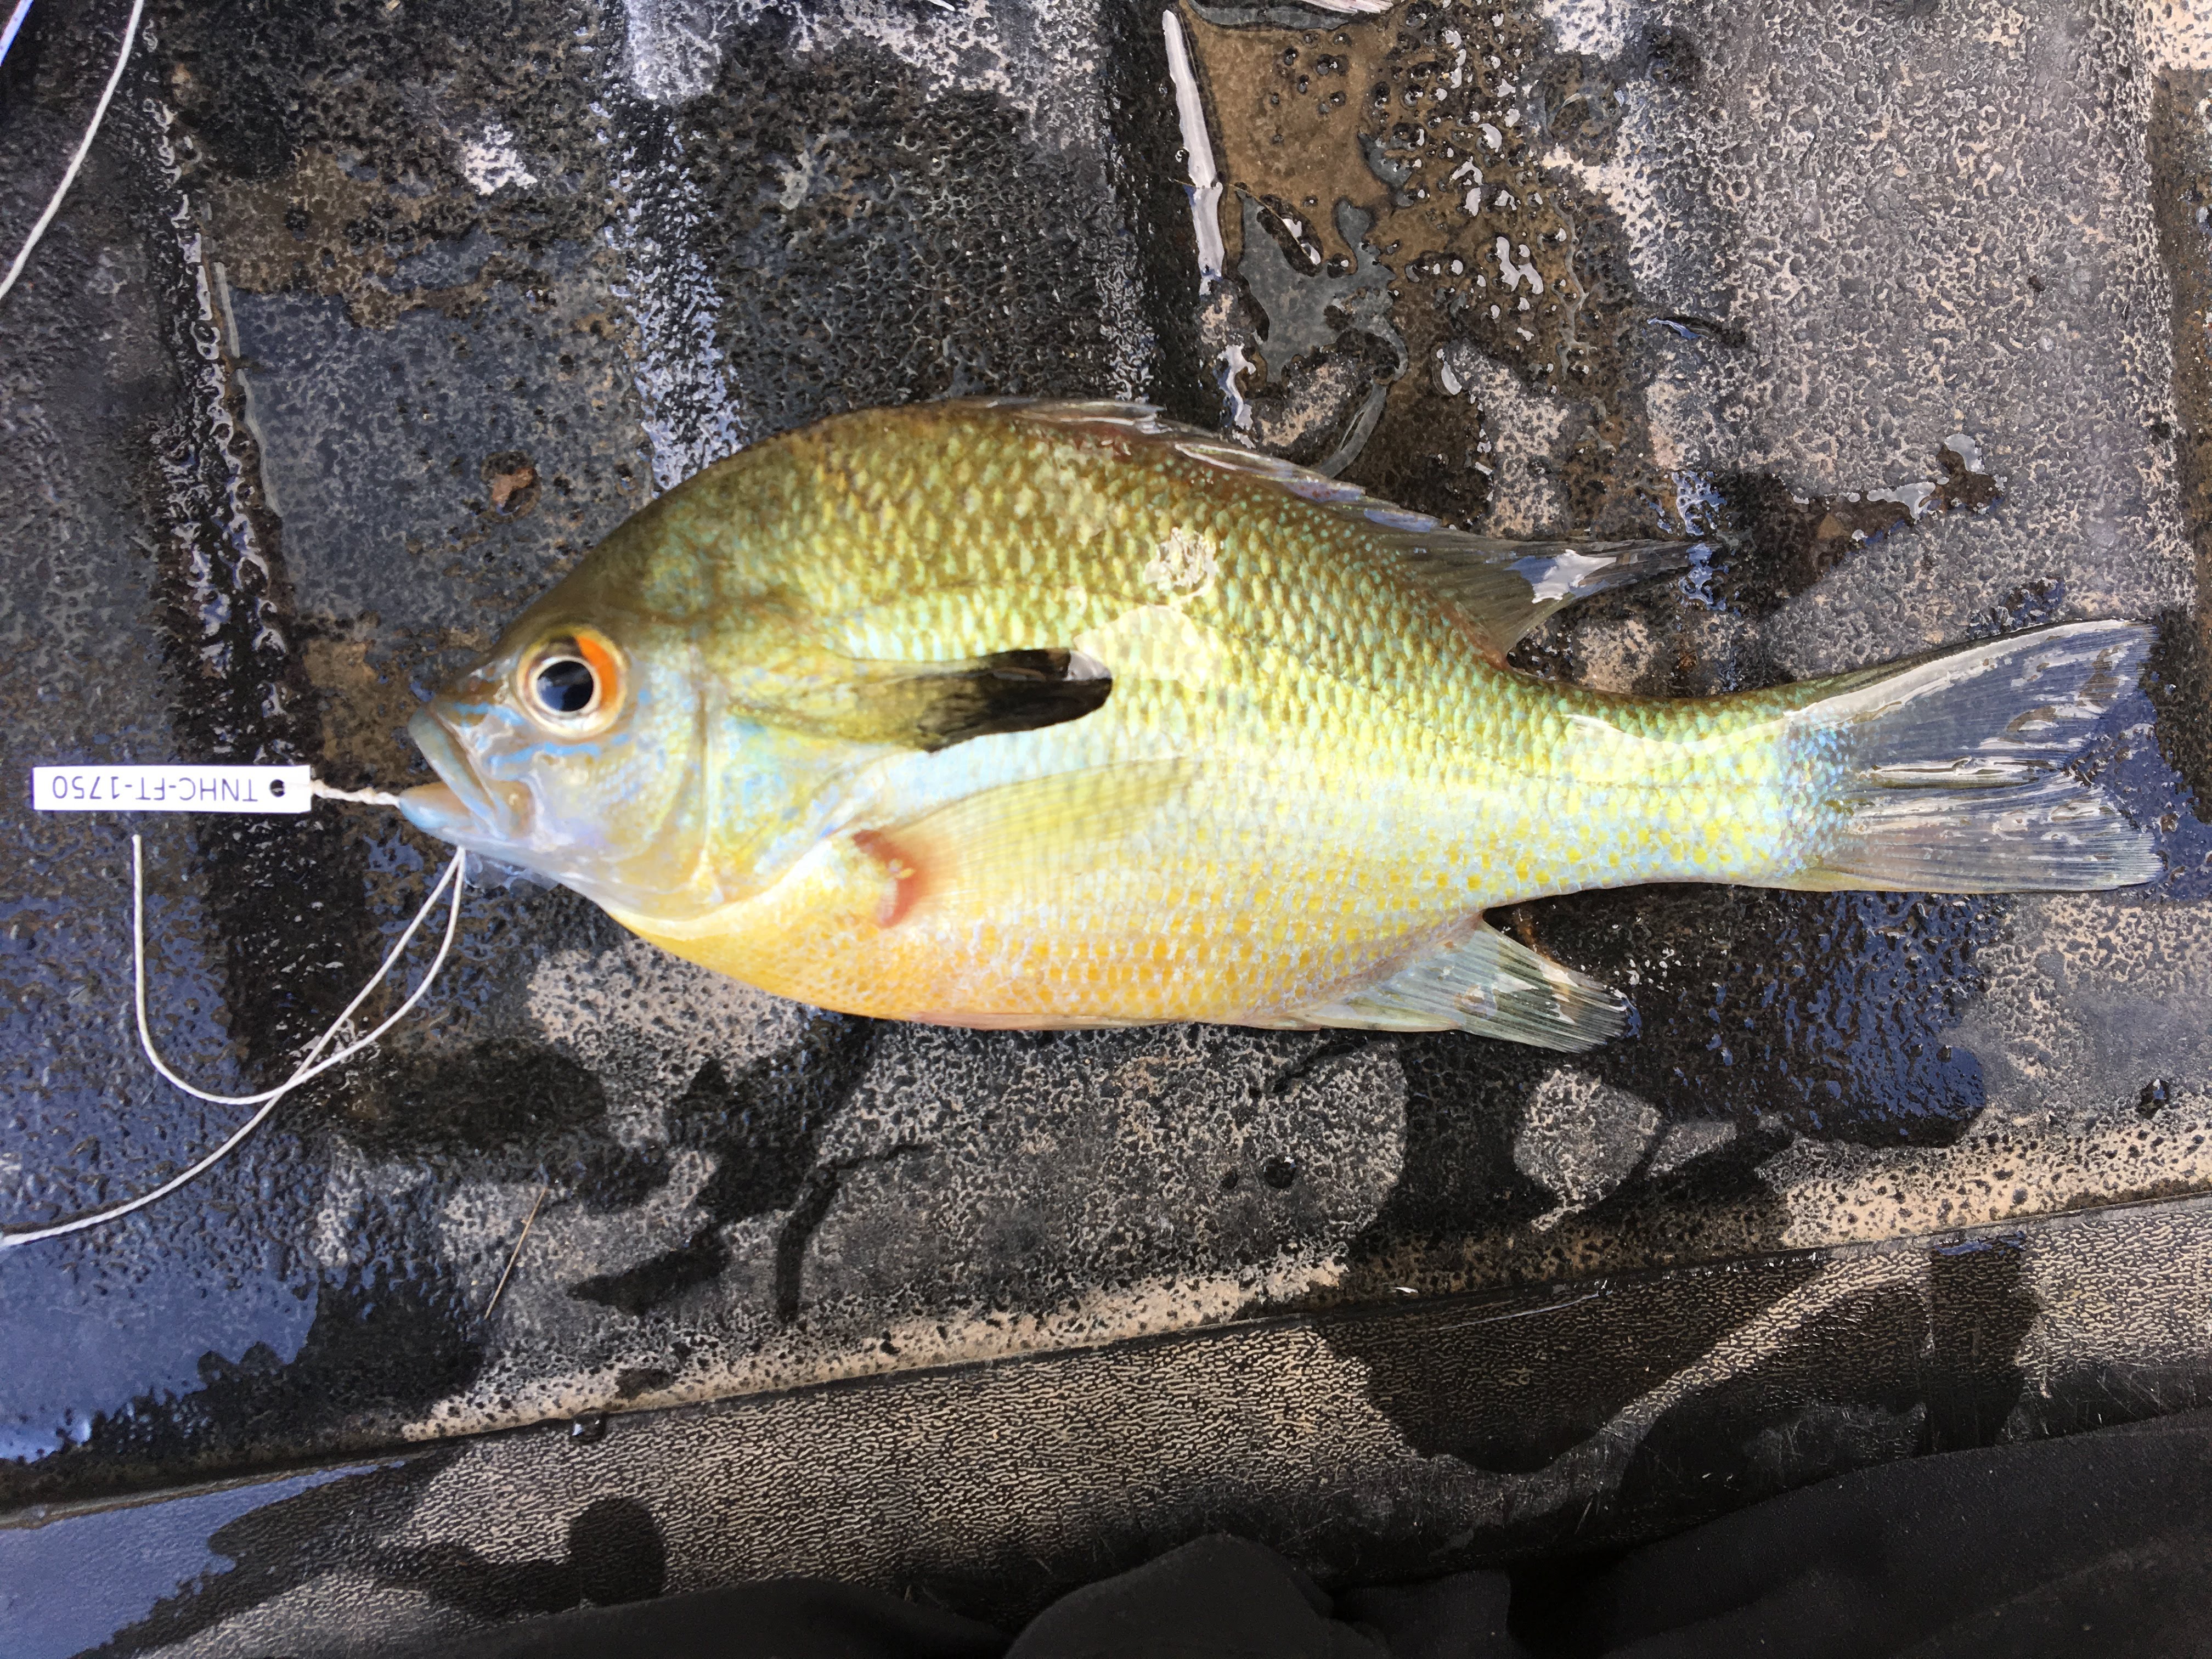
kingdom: Animalia
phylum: Chordata
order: Perciformes
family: Centrarchidae
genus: Lepomis
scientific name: Lepomis auritus
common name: Redbreast sunfish
